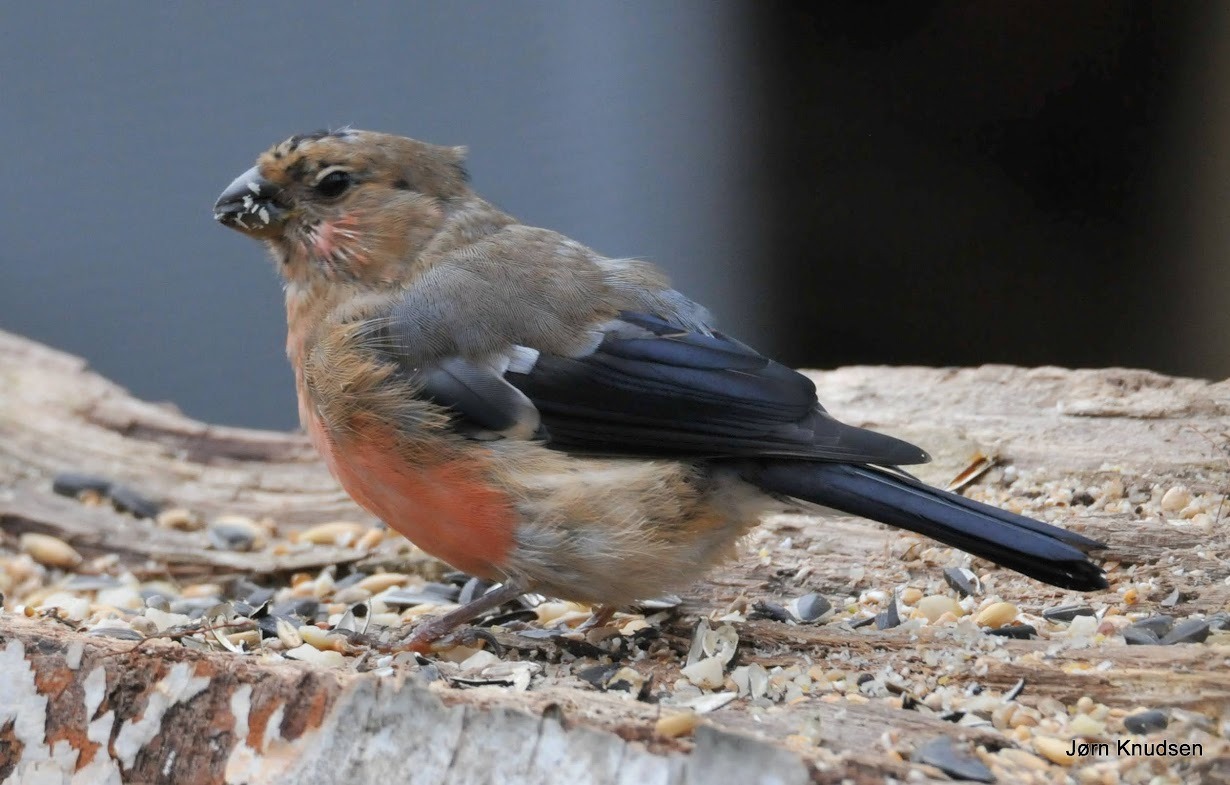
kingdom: Animalia
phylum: Chordata
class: Aves
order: Passeriformes
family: Fringillidae
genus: Pyrrhula
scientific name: Pyrrhula pyrrhula
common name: Dompap
